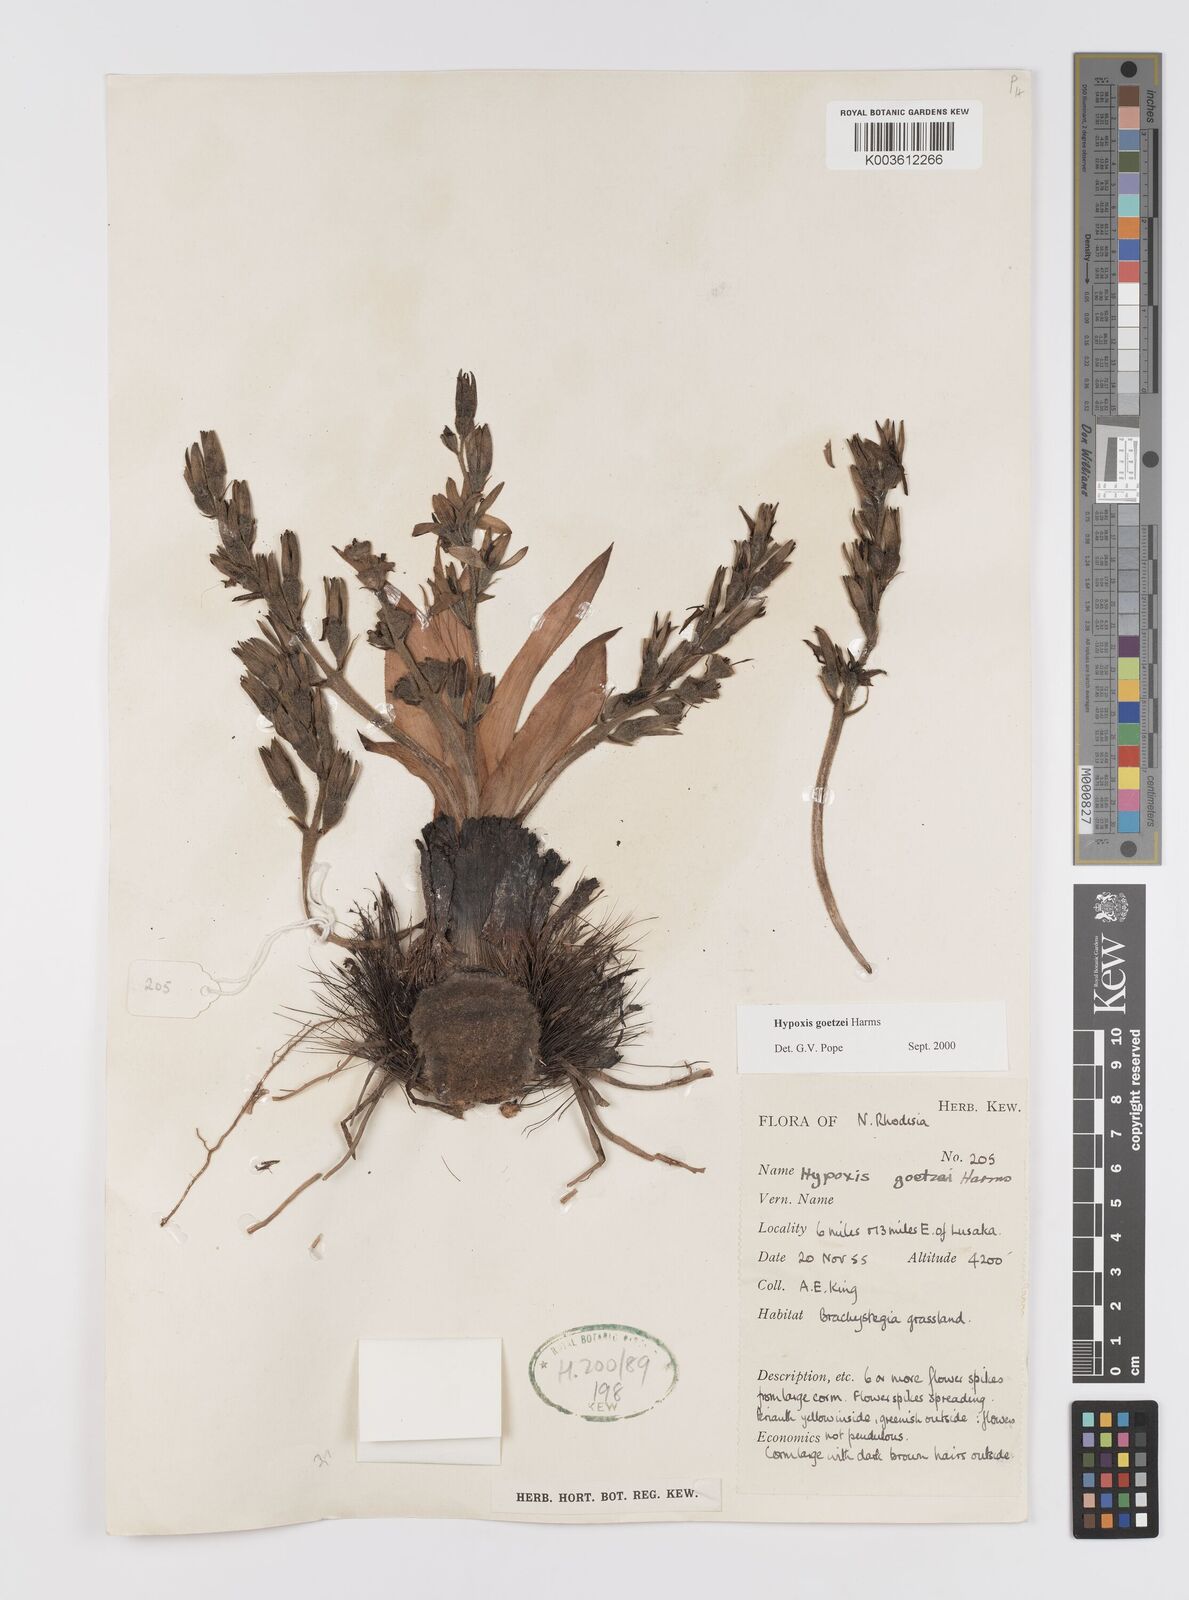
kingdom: Plantae
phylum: Tracheophyta
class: Liliopsida
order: Asparagales
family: Hypoxidaceae
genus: Hypoxis
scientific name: Hypoxis goetzei
